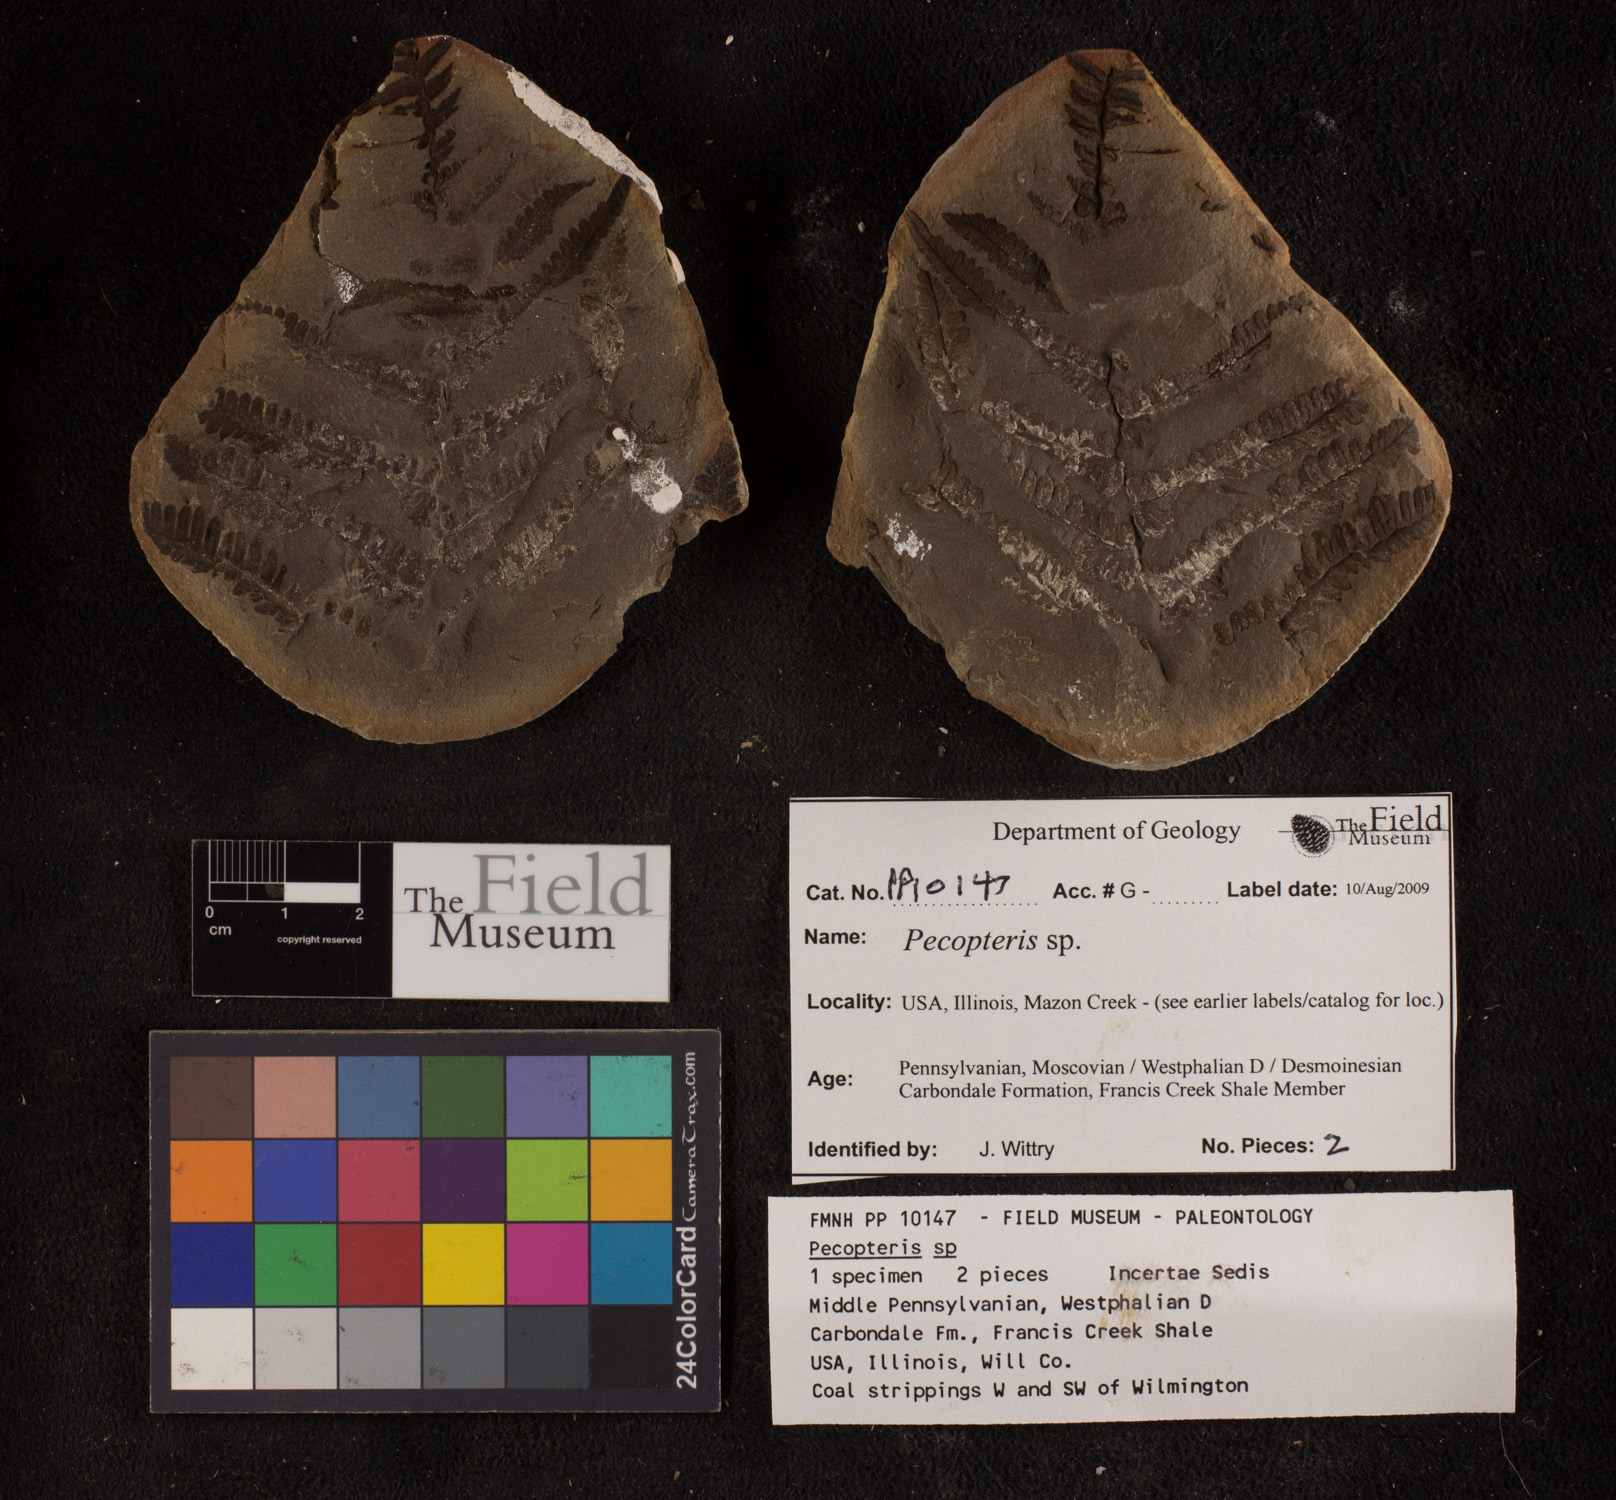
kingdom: Plantae
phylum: Tracheophyta
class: Polypodiopsida
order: Marattiales
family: Asterothecaceae
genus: Pecopteris
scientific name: Pecopteris
